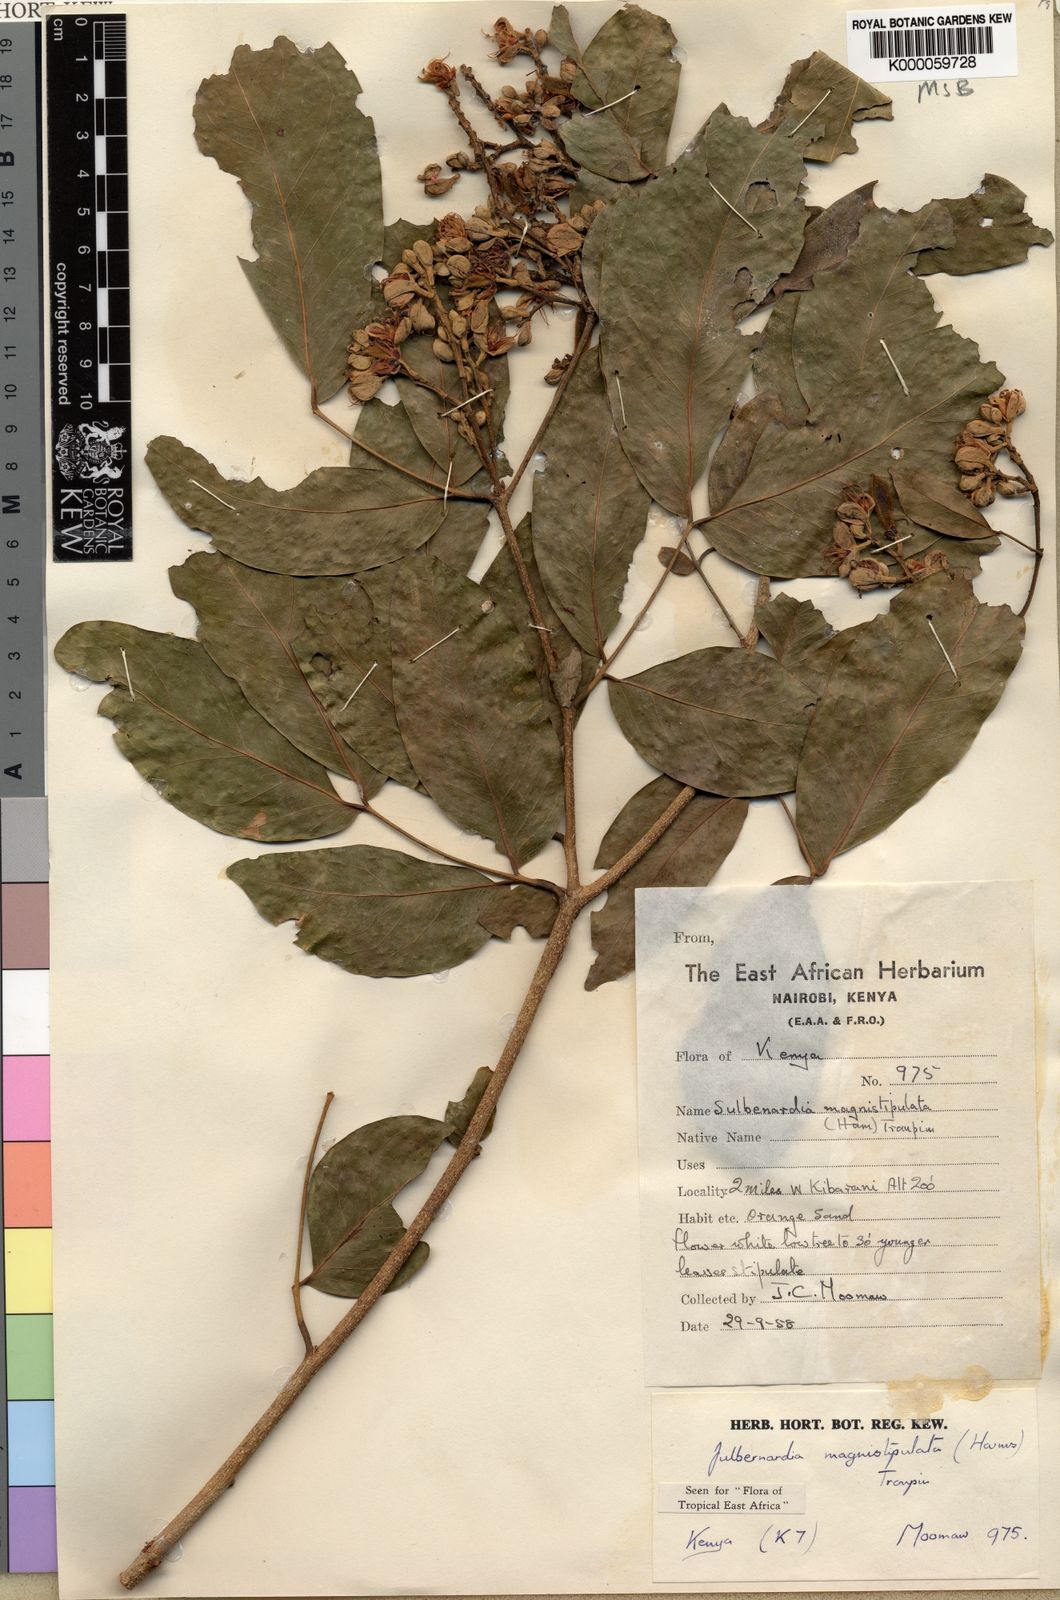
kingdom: Plantae
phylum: Tracheophyta
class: Magnoliopsida
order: Fabales
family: Fabaceae
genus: Julbernardia
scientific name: Julbernardia magnistipulata
